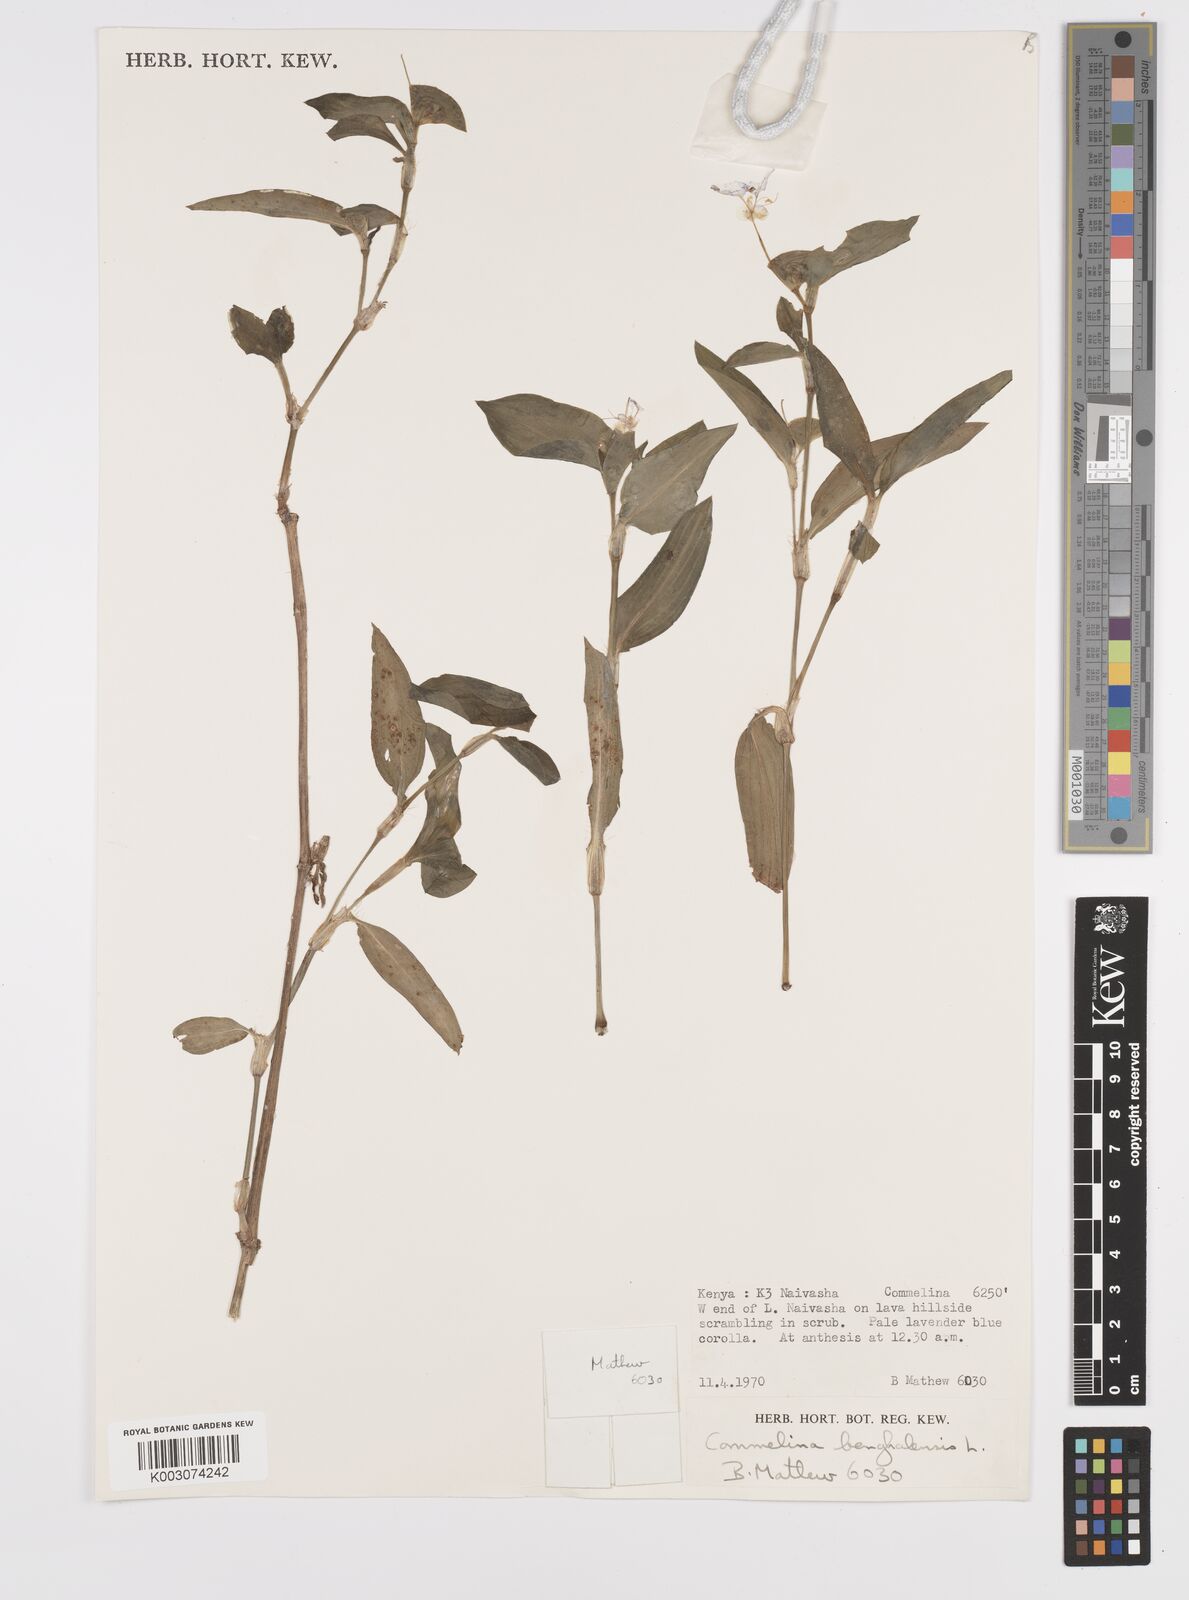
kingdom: Plantae
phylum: Tracheophyta
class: Liliopsida
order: Commelinales
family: Commelinaceae
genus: Commelina
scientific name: Commelina benghalensis
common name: Jio
